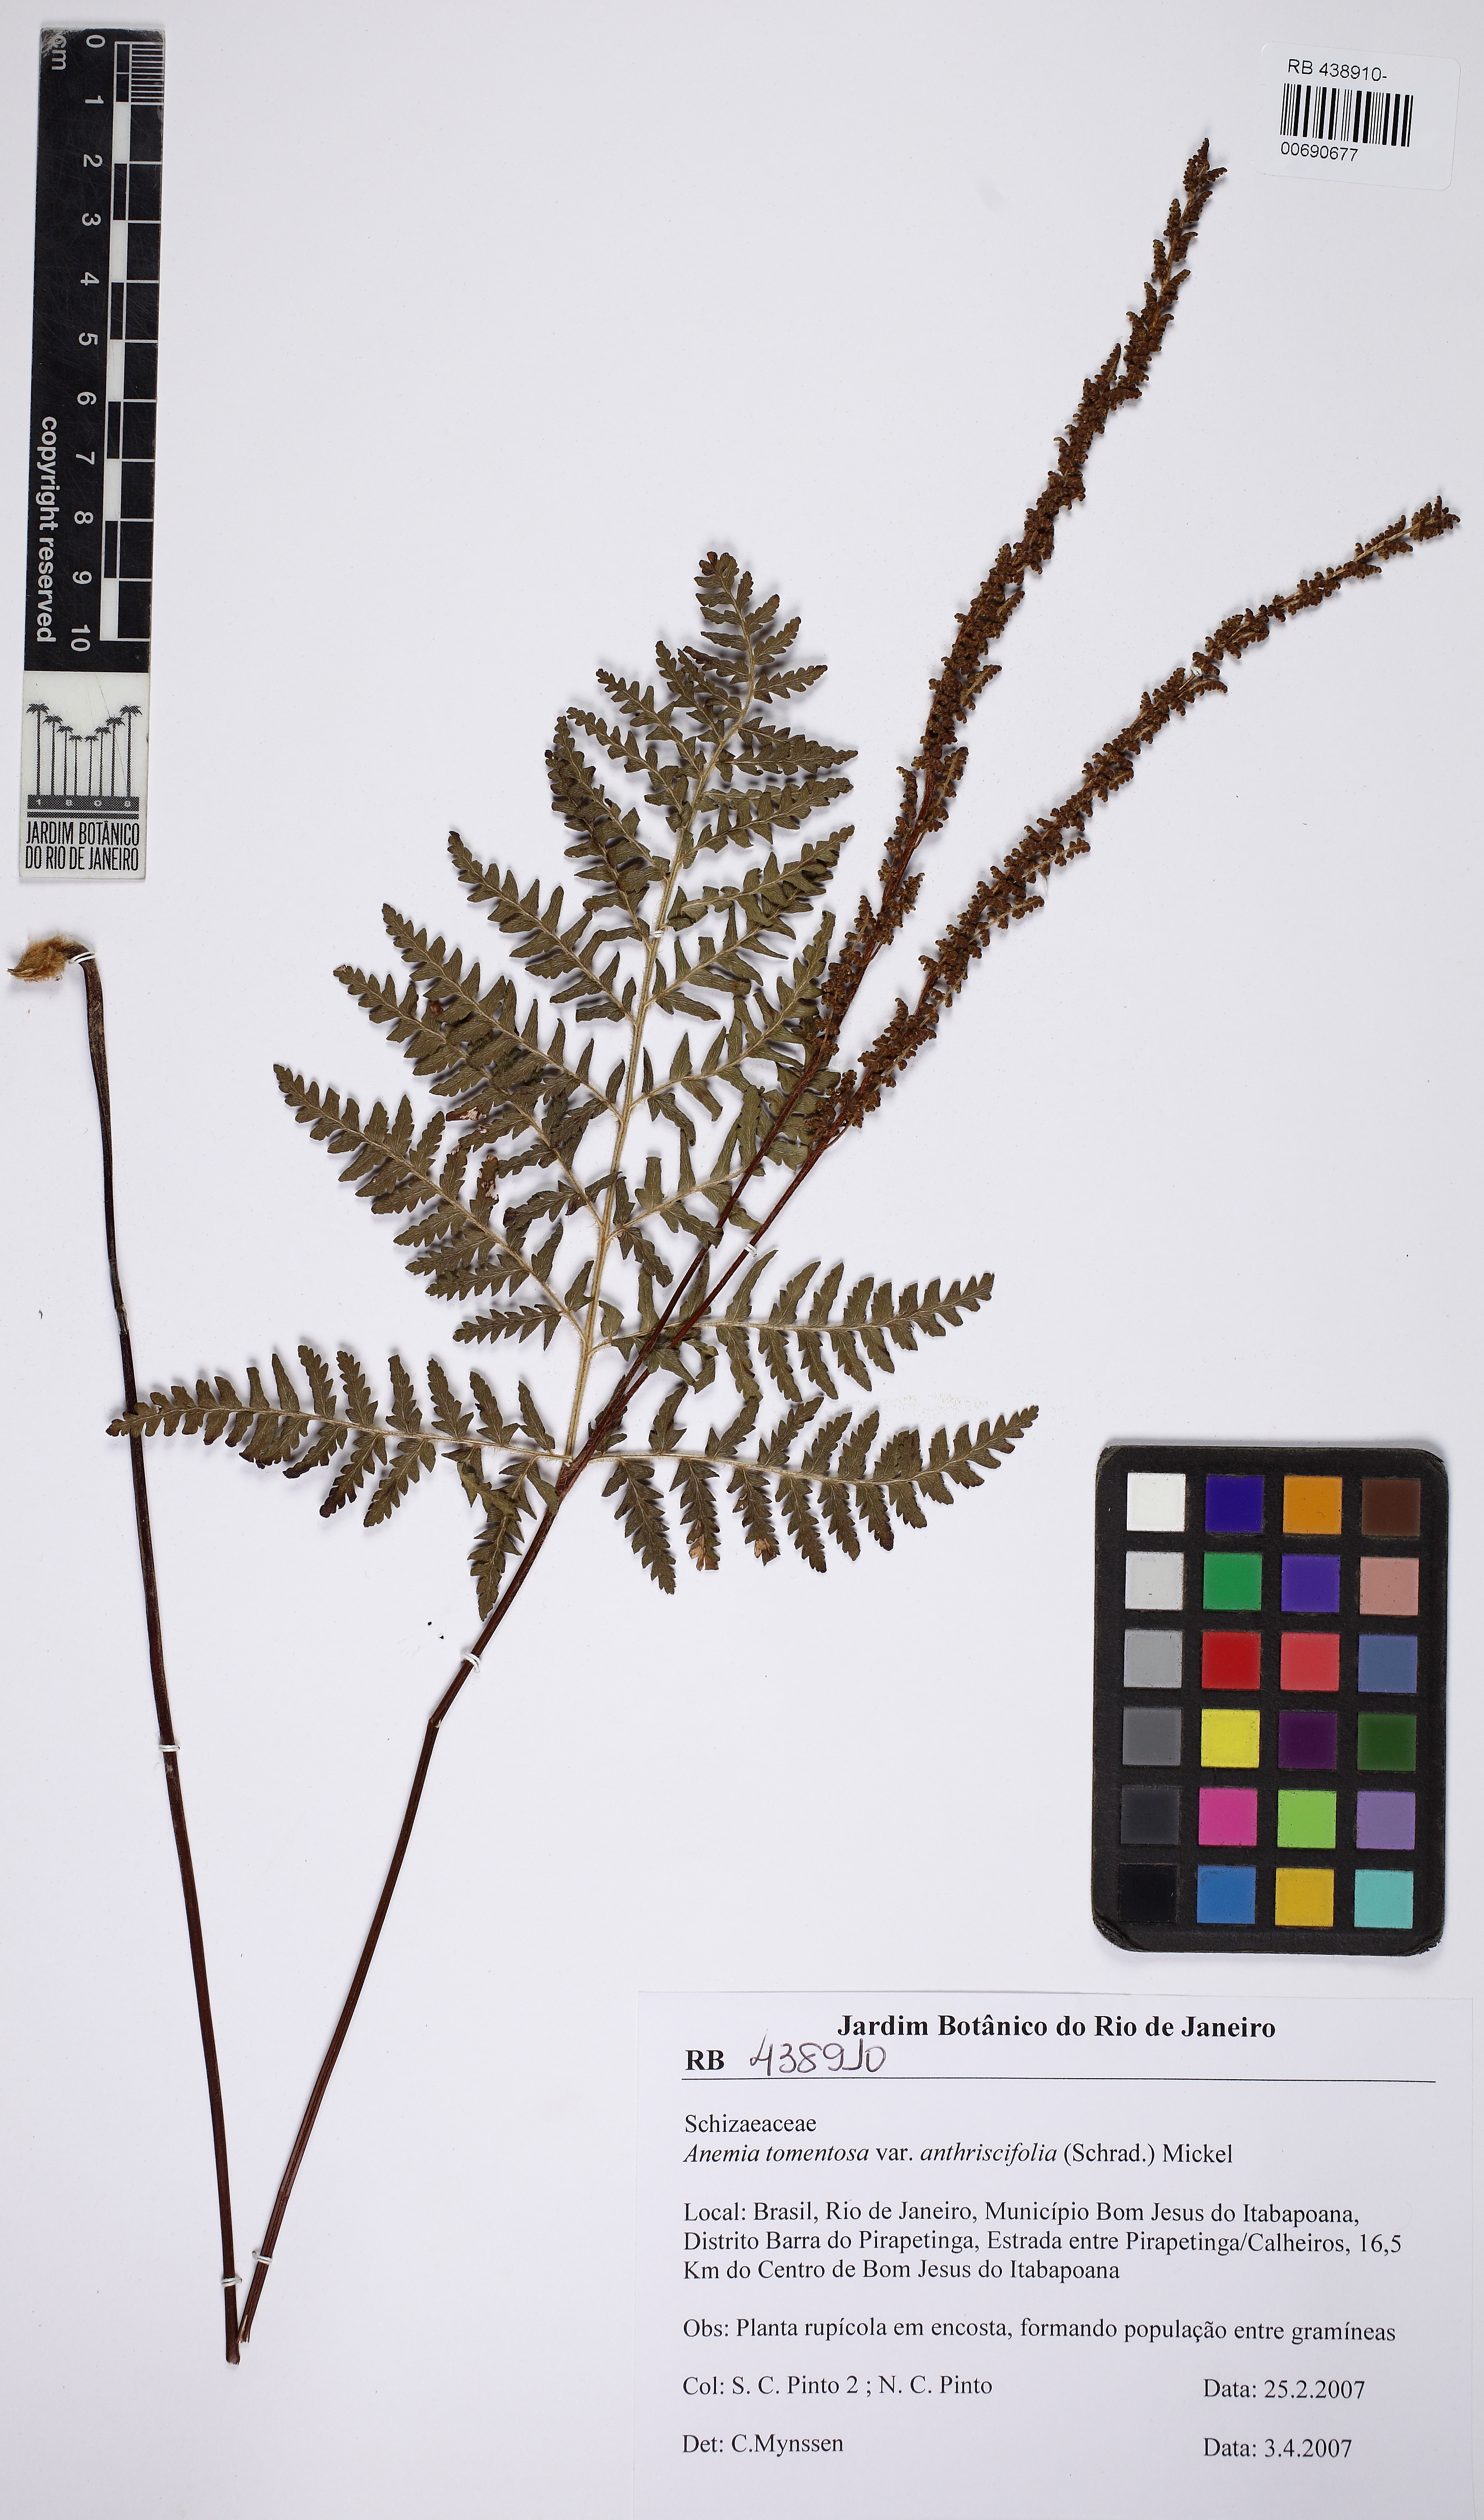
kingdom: Plantae
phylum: Tracheophyta
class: Polypodiopsida
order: Schizaeales
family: Anemiaceae
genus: Anemia
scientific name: Anemia tomentosa
